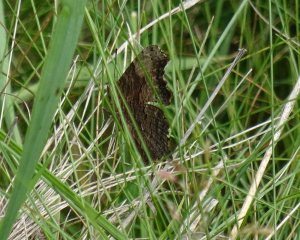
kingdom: Animalia
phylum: Arthropoda
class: Insecta
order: Lepidoptera
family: Nymphalidae
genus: Polygonia
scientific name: Polygonia progne
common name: Gray Comma
